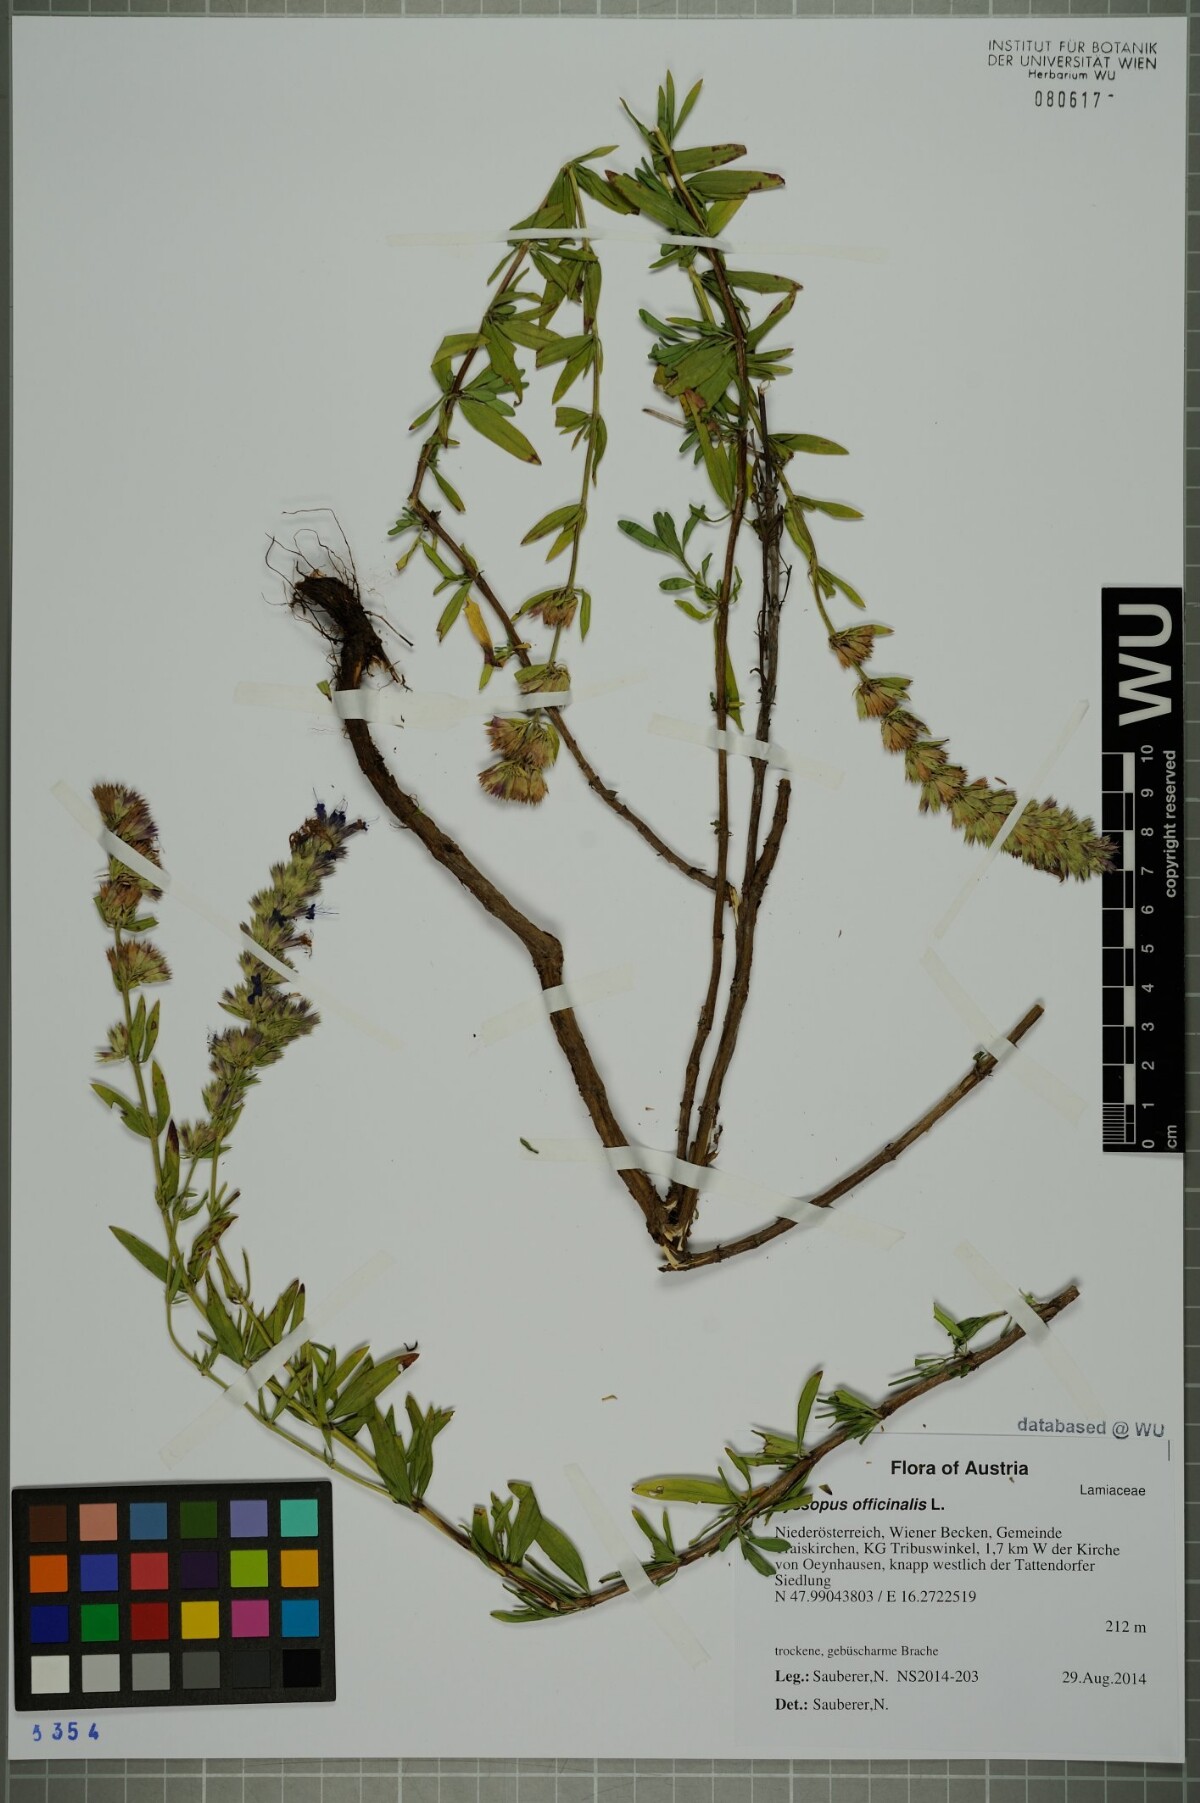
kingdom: Plantae
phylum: Tracheophyta
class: Magnoliopsida
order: Lamiales
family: Lamiaceae
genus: Hyssopus
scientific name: Hyssopus officinalis
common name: Hyssop
